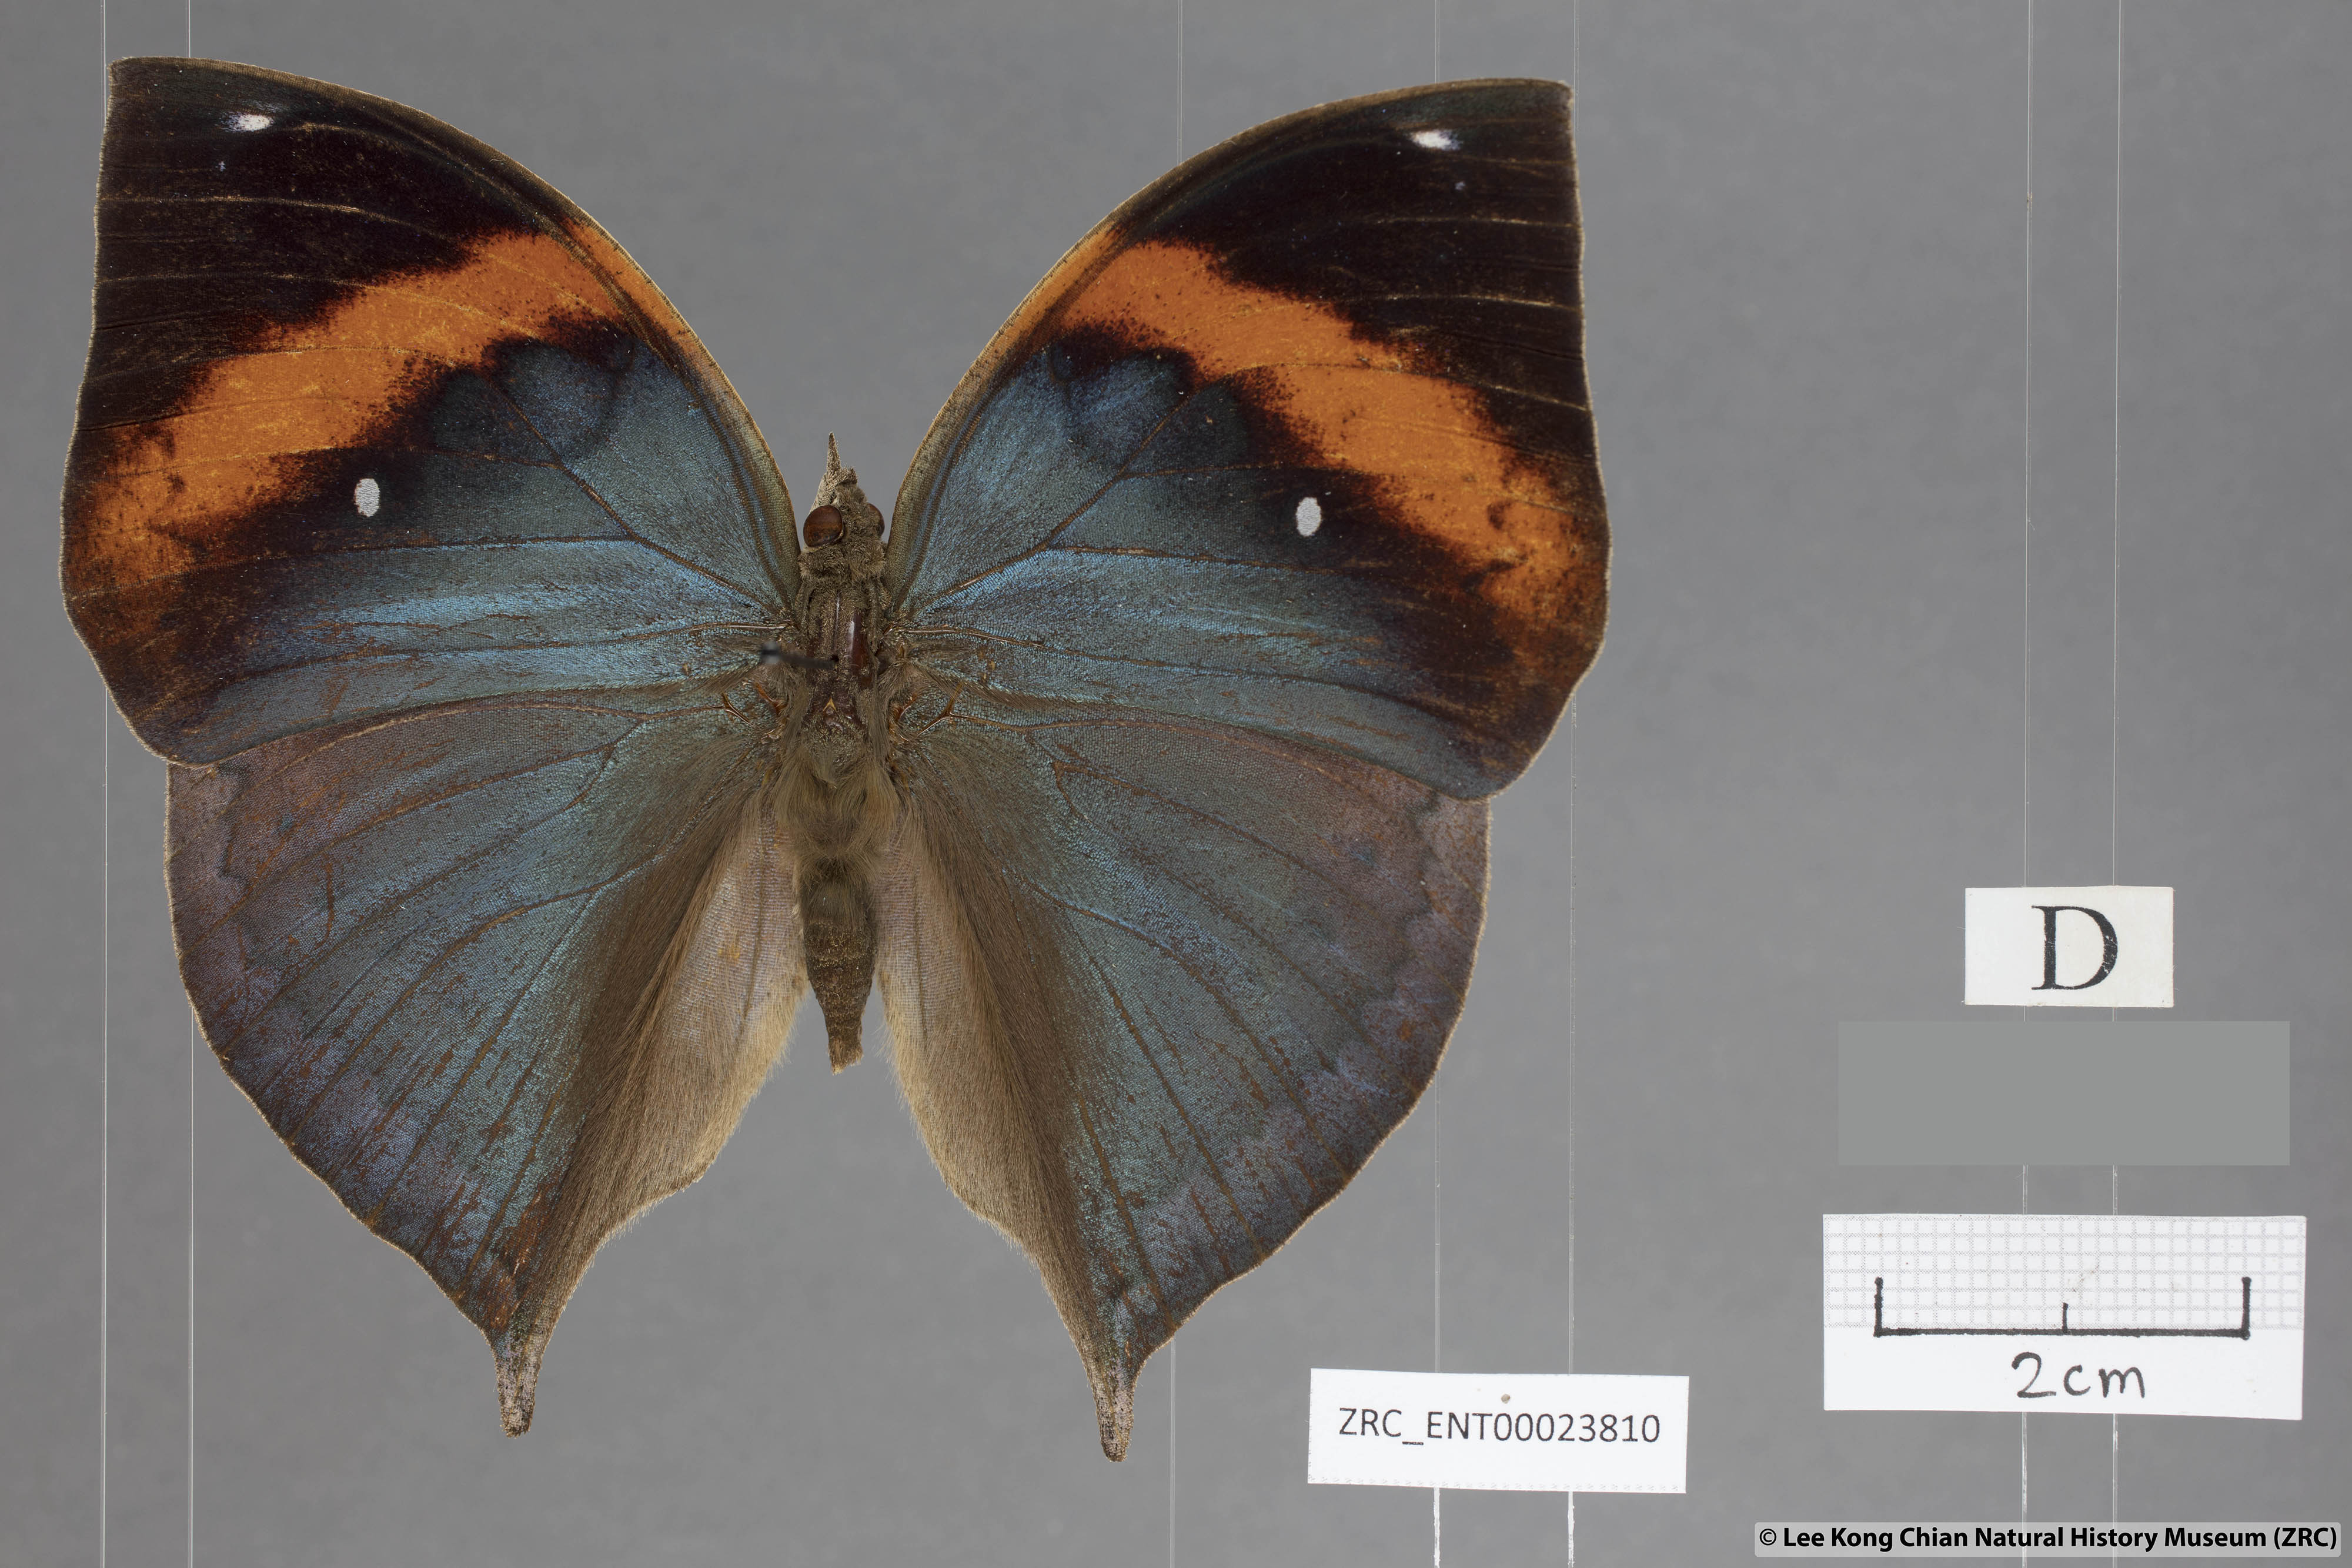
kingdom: Animalia
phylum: Arthropoda
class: Insecta
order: Lepidoptera
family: Nymphalidae
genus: Kallima
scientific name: Kallima paralekta
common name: Indian leafwing
